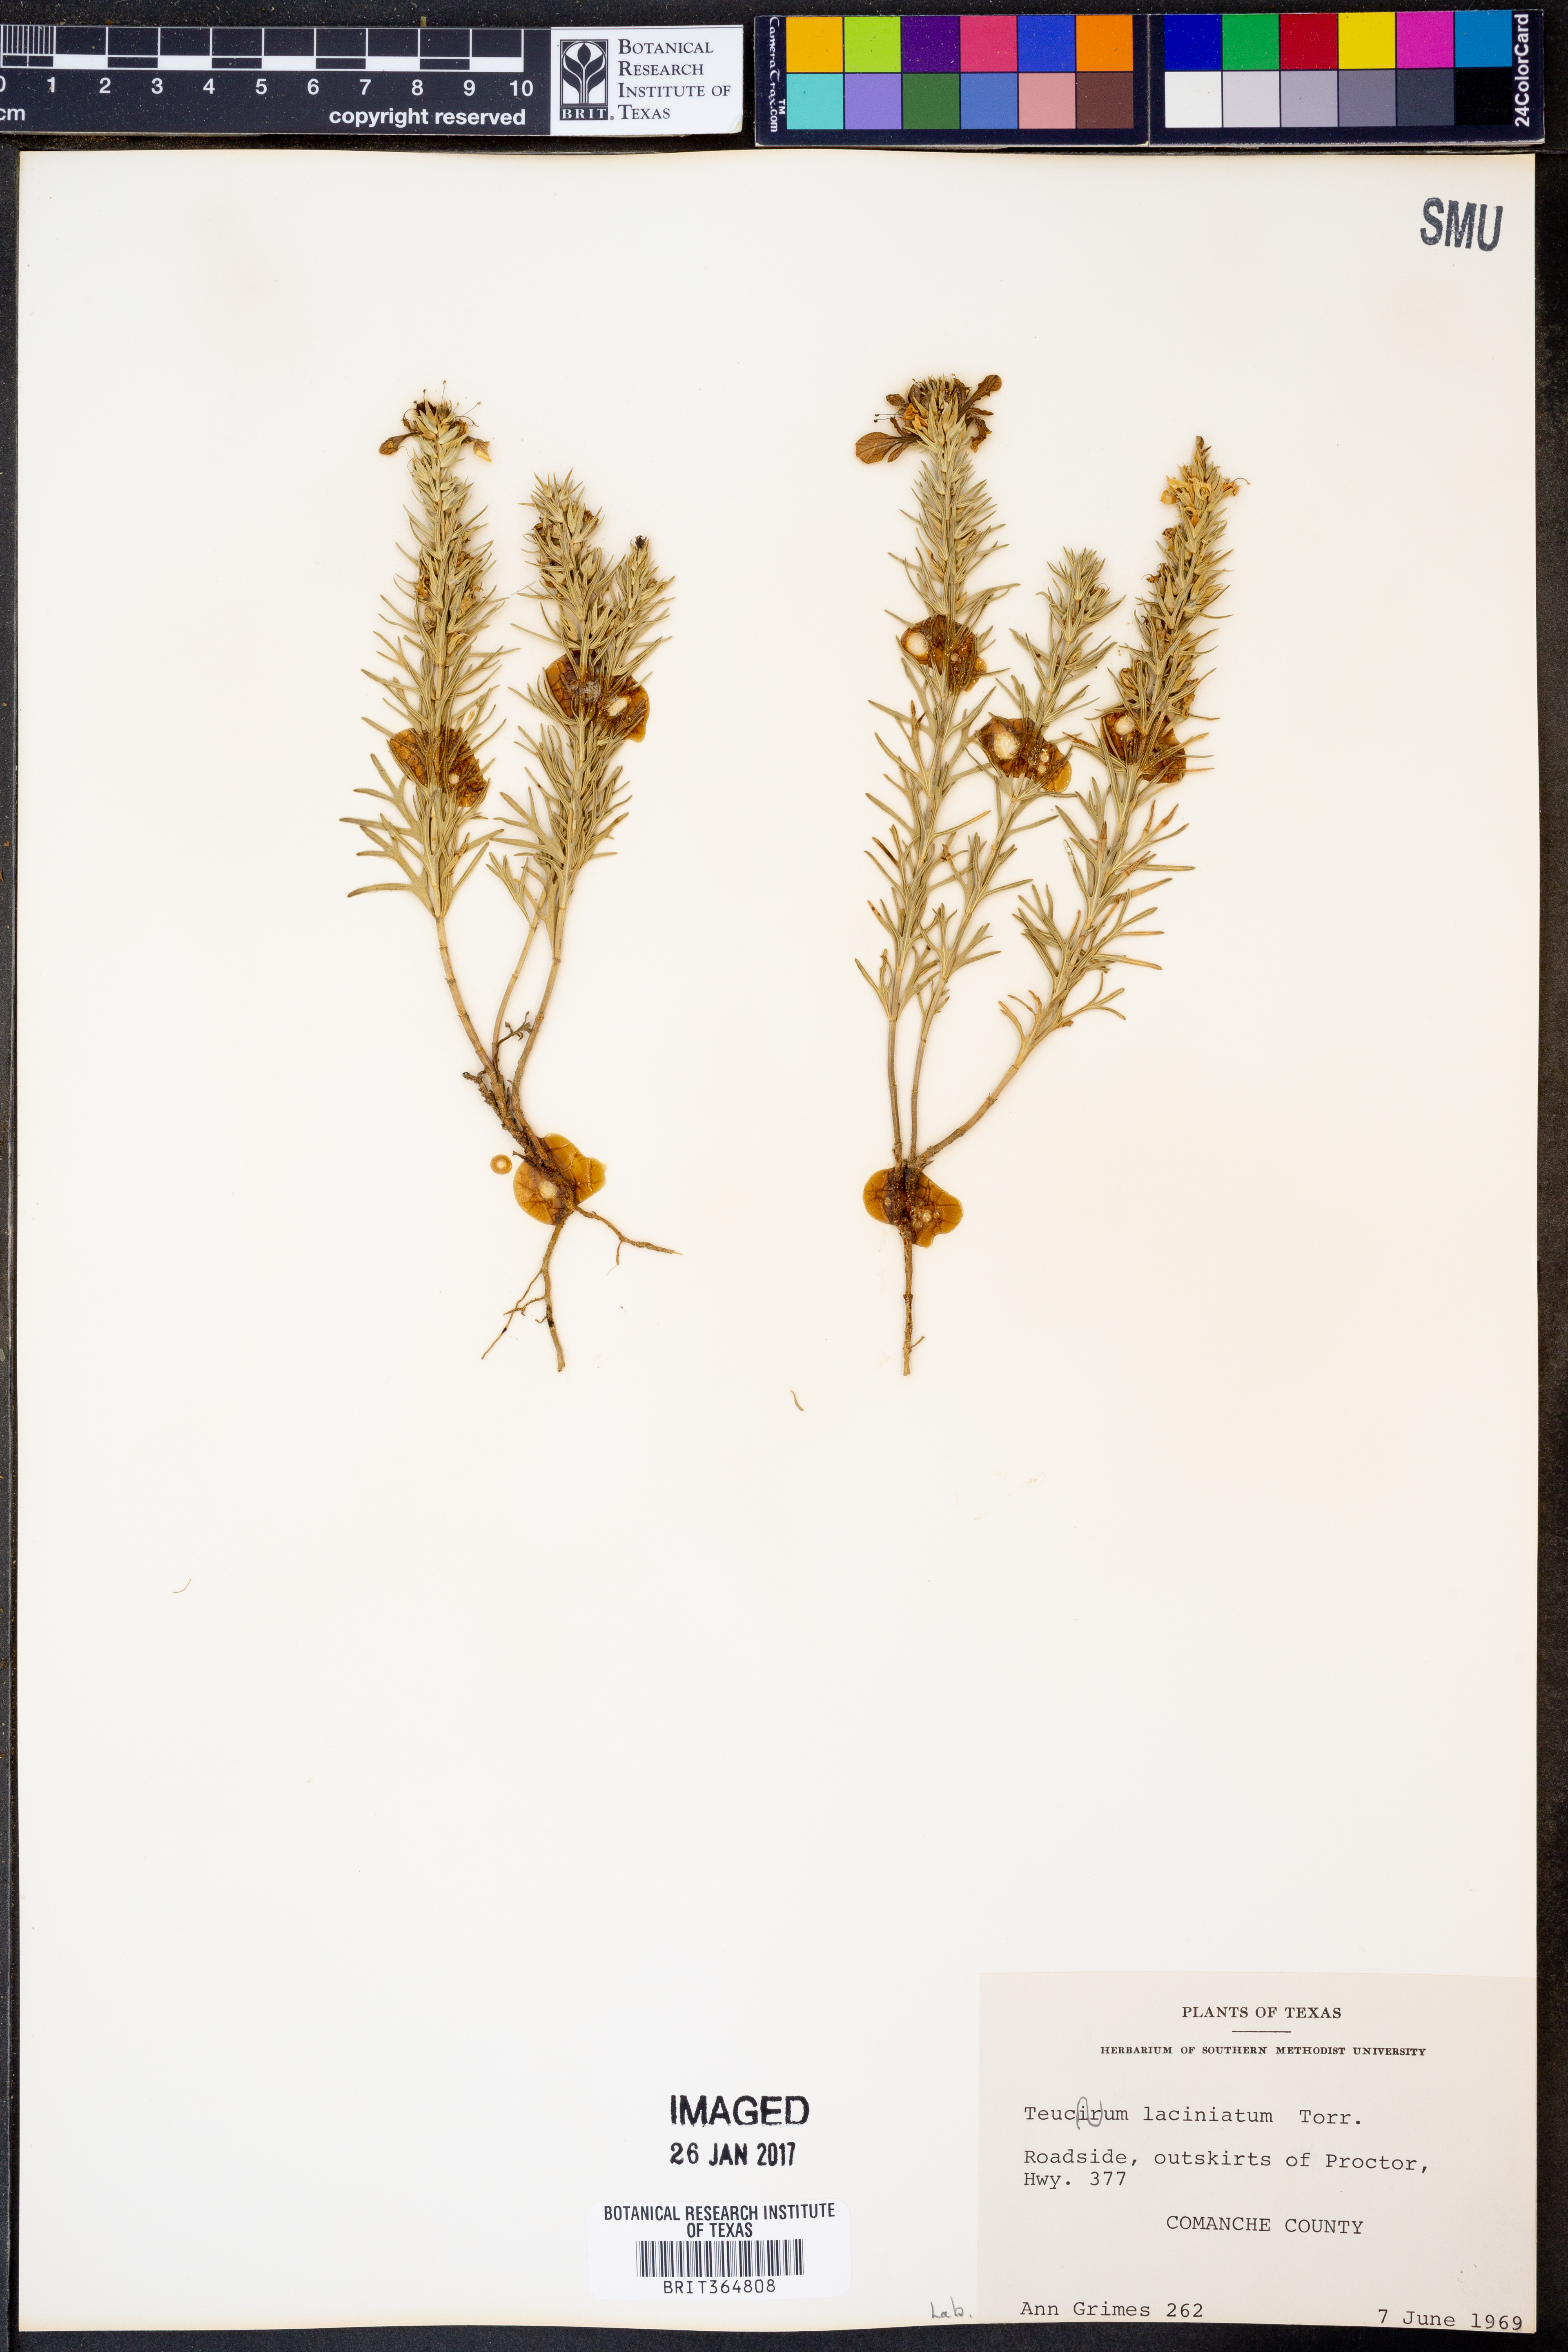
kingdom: Plantae
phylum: Tracheophyta
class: Magnoliopsida
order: Lamiales
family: Lamiaceae
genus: Teucrium
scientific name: Teucrium laciniatum
